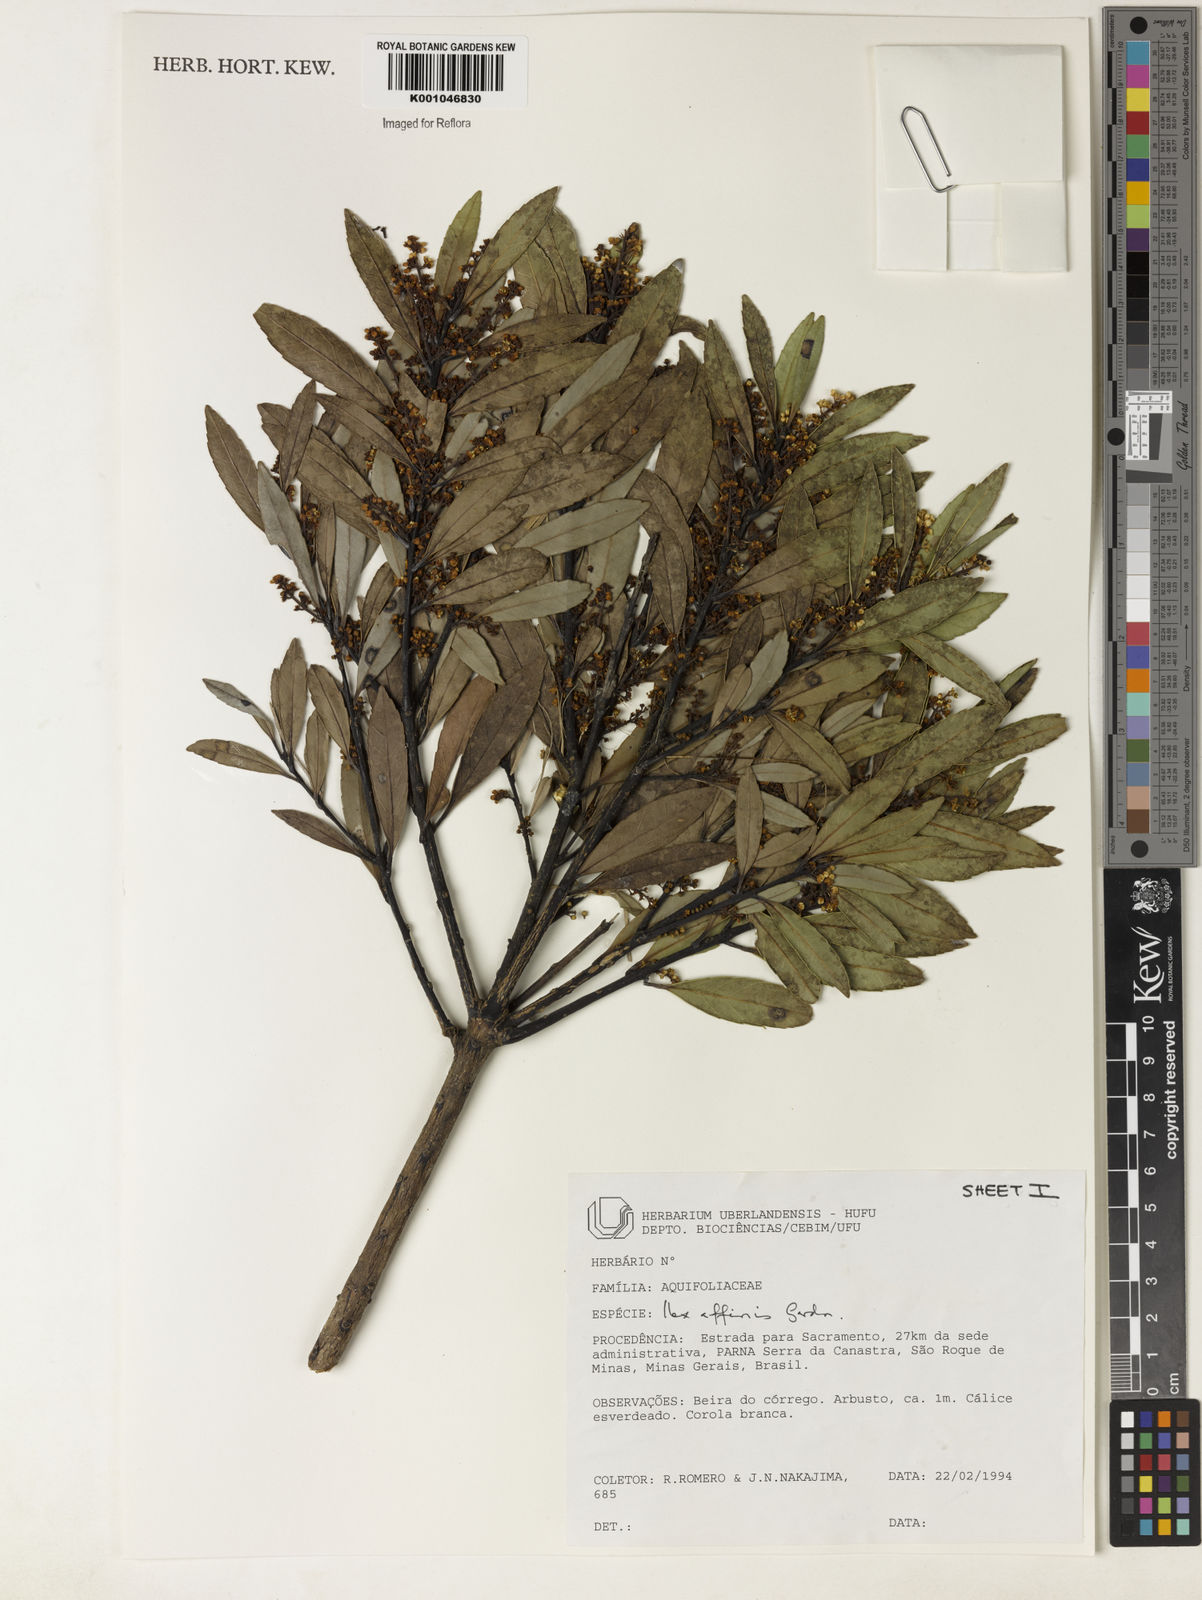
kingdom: Plantae
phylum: Tracheophyta
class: Magnoliopsida
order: Aquifoliales
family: Aquifoliaceae
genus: Ilex
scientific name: Ilex affinis
